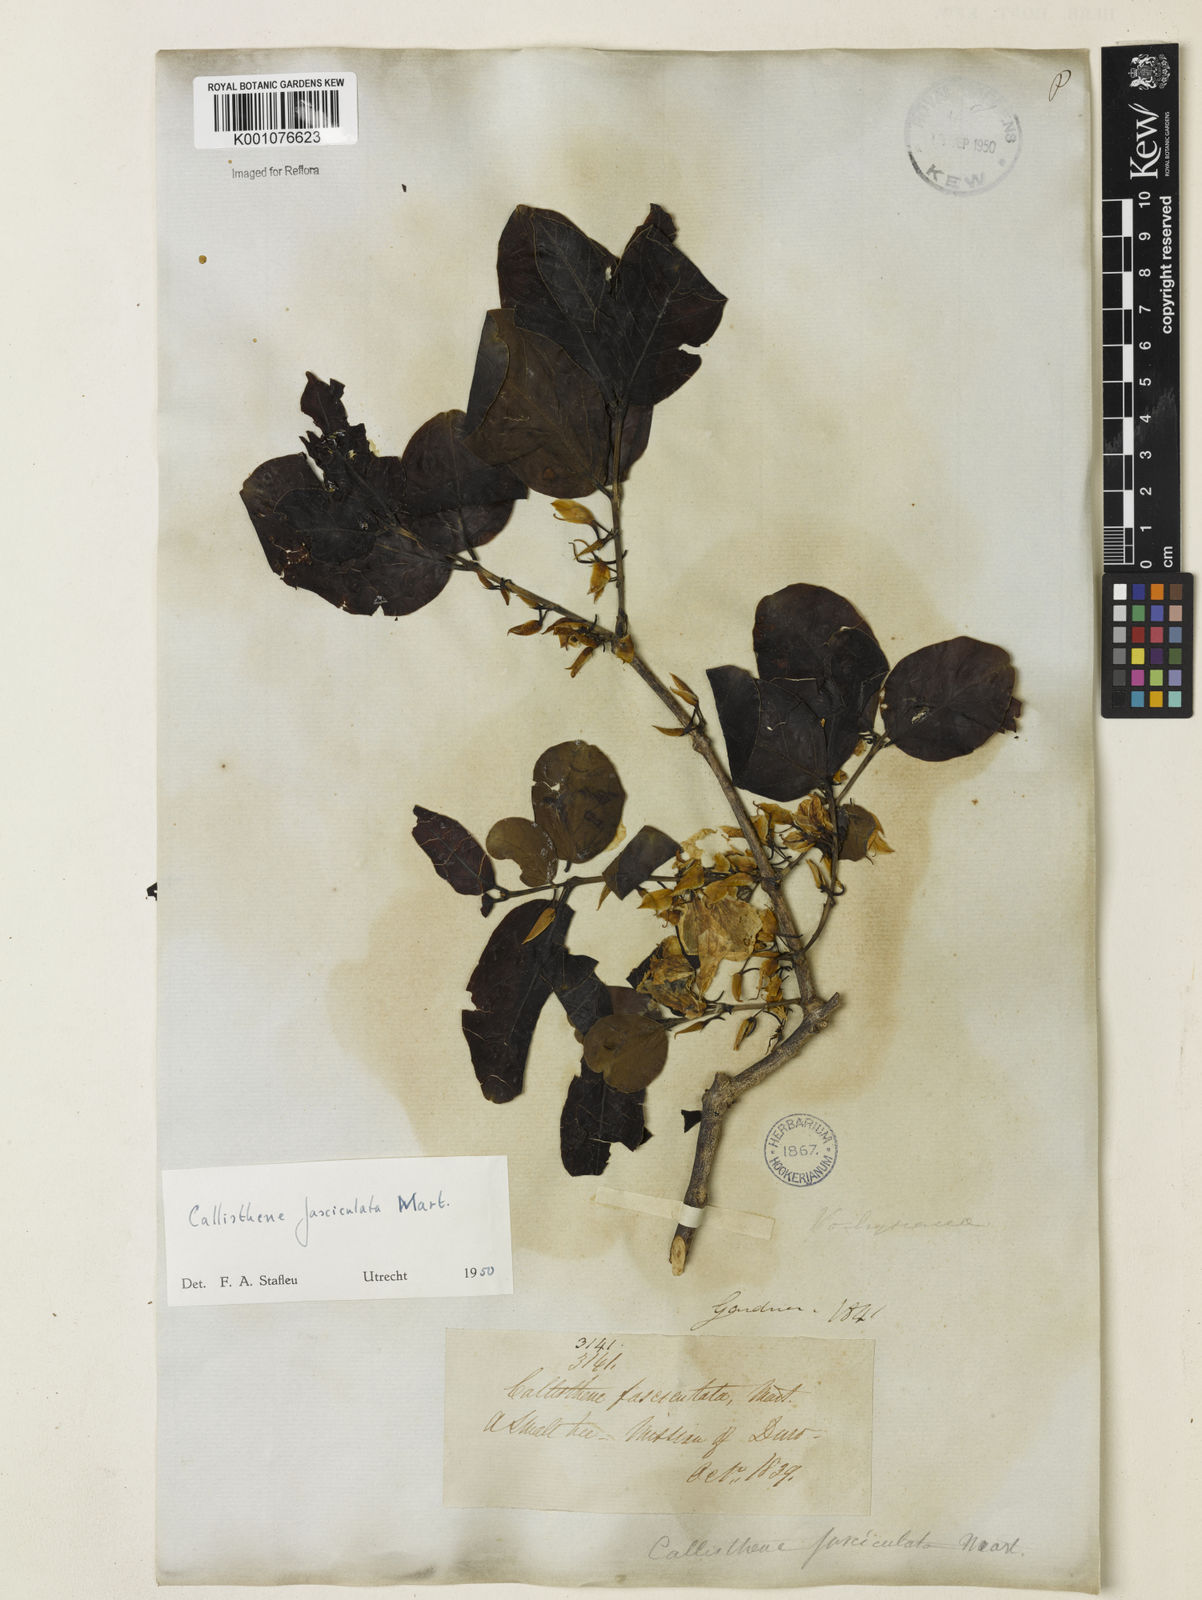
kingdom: Plantae
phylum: Tracheophyta
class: Magnoliopsida
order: Myrtales
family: Vochysiaceae
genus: Callisthene
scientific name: Callisthene fasciculata
